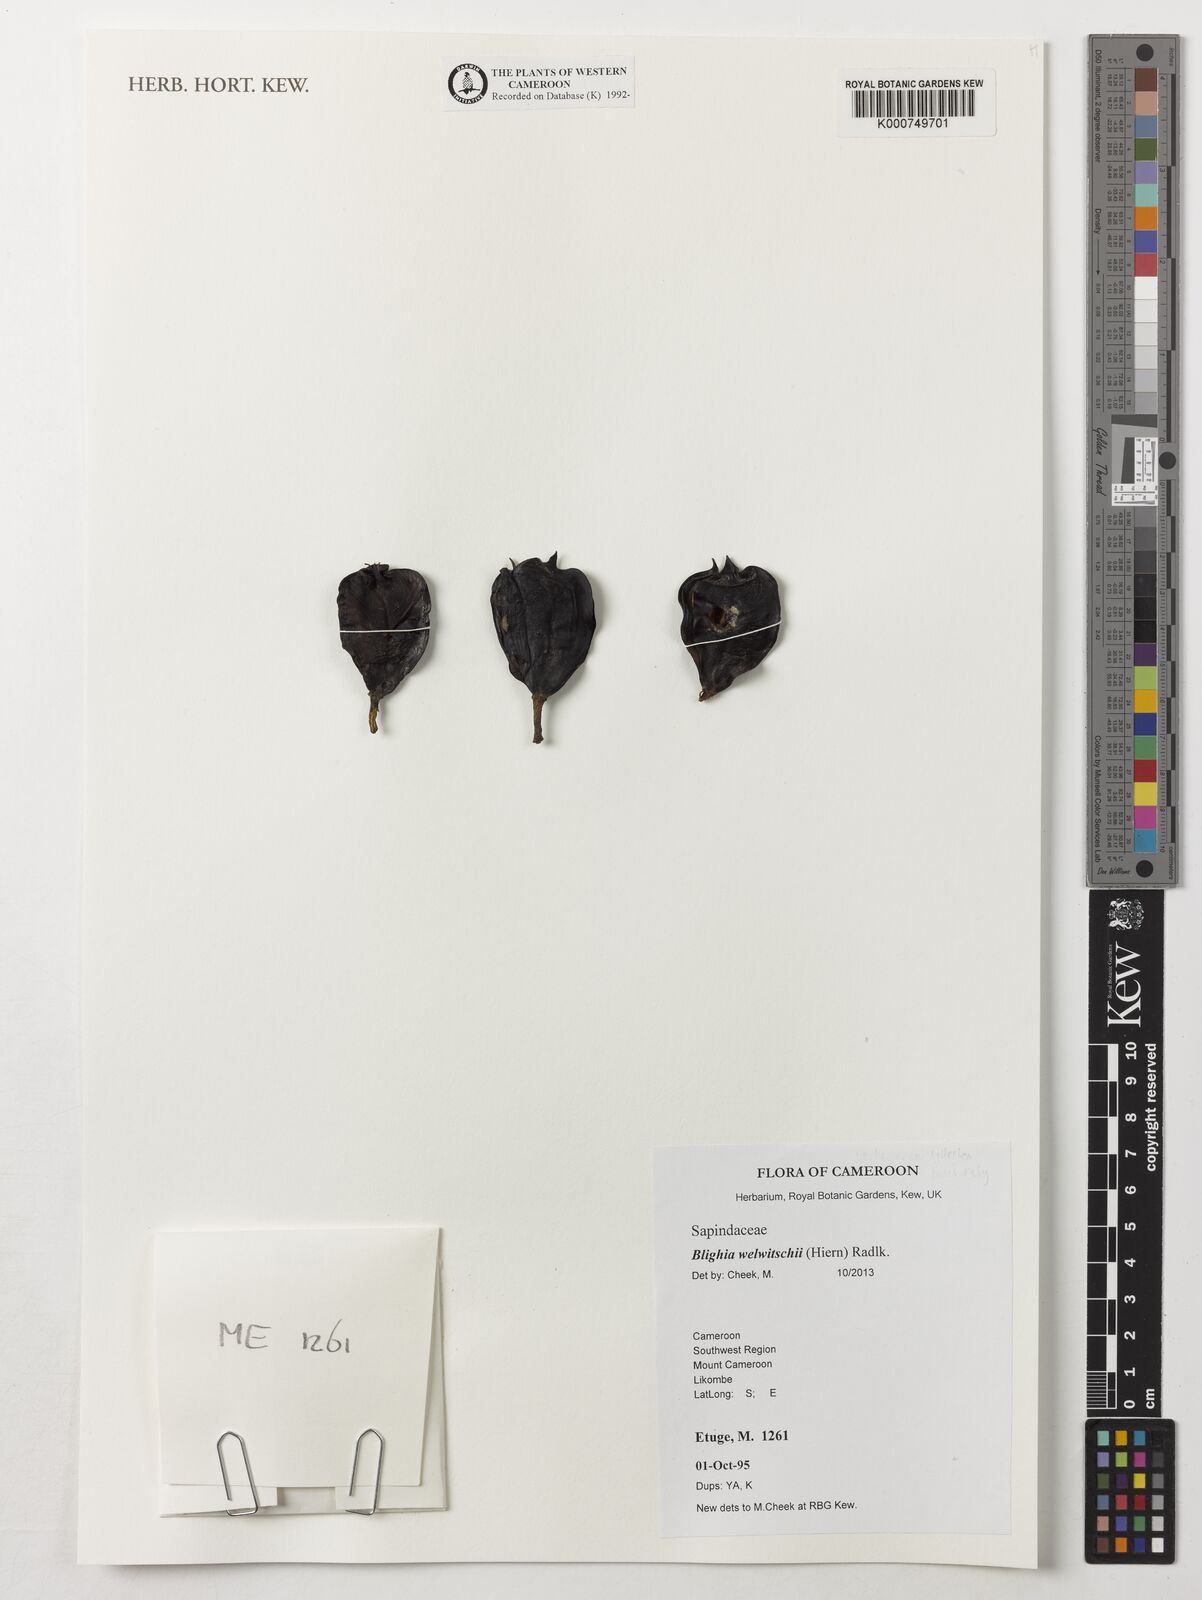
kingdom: Plantae
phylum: Tracheophyta
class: Magnoliopsida
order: Sapindales
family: Sapindaceae
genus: Blighia
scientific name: Blighia welwitschii
